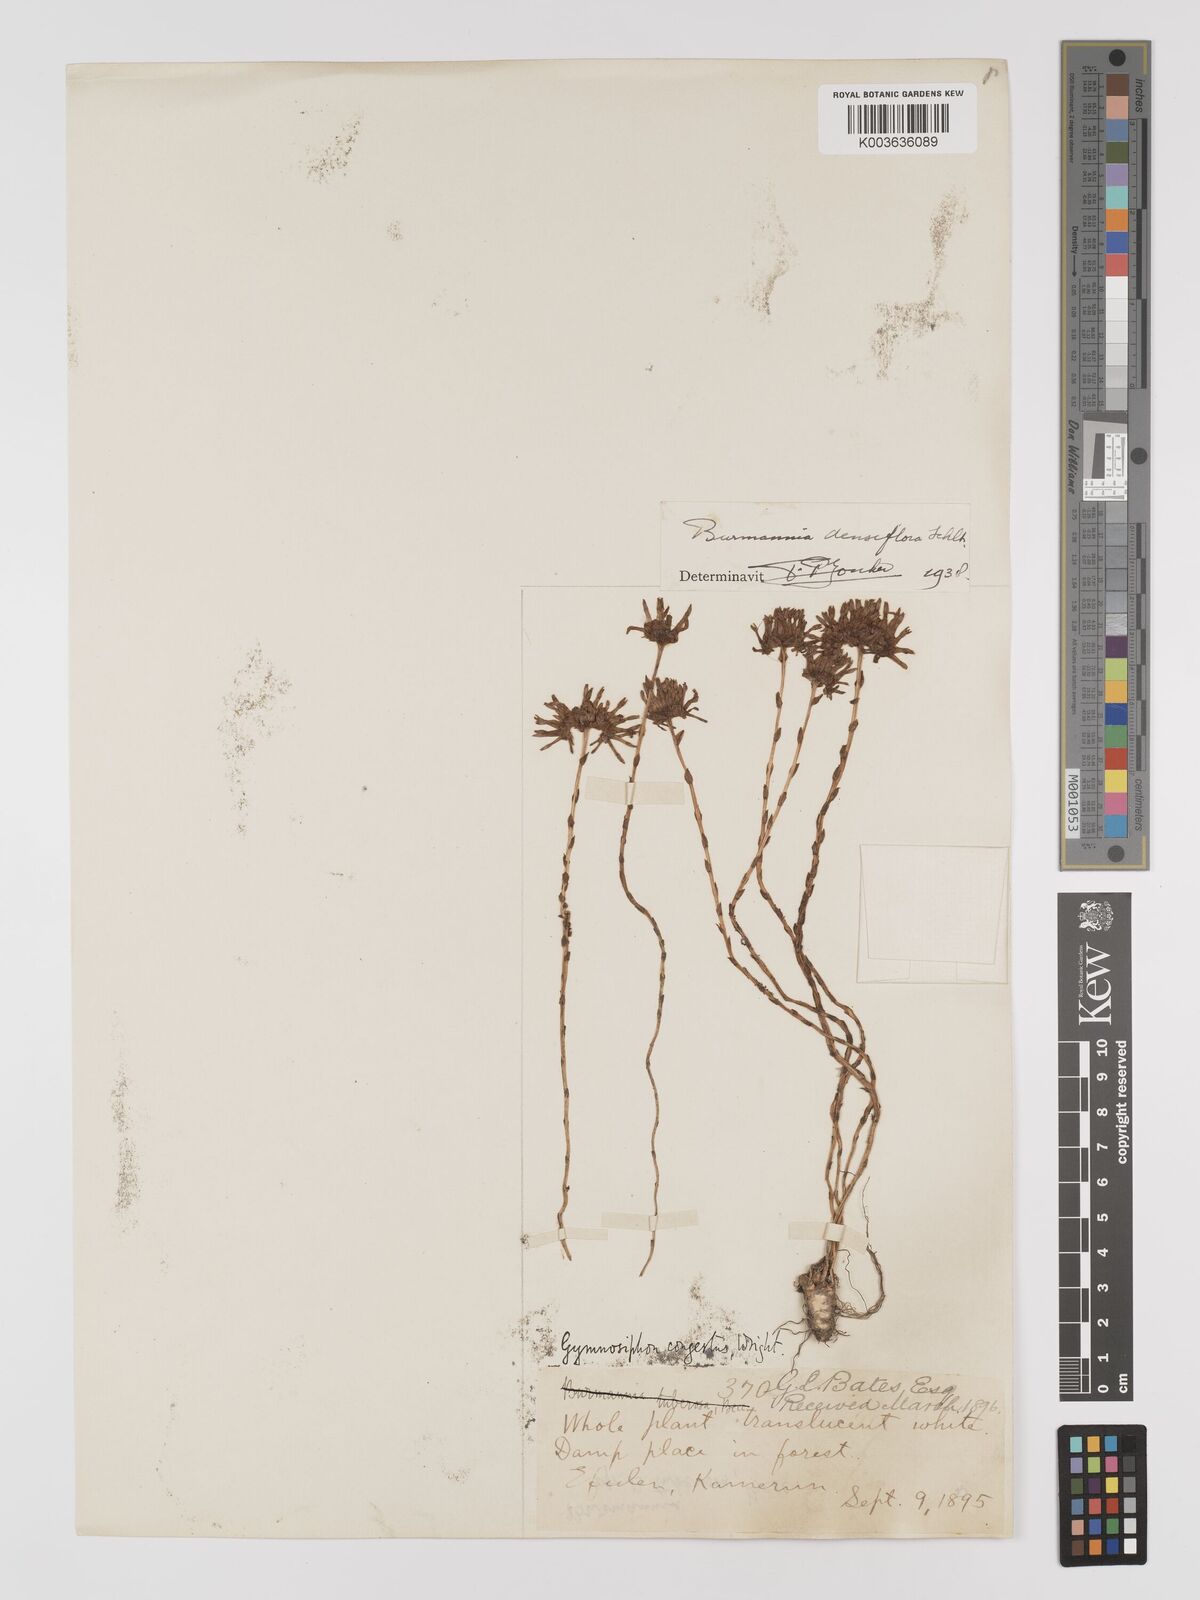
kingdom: Plantae
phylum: Tracheophyta
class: Liliopsida
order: Dioscoreales
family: Burmanniaceae
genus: Campylosiphon
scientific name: Campylosiphon congestus
